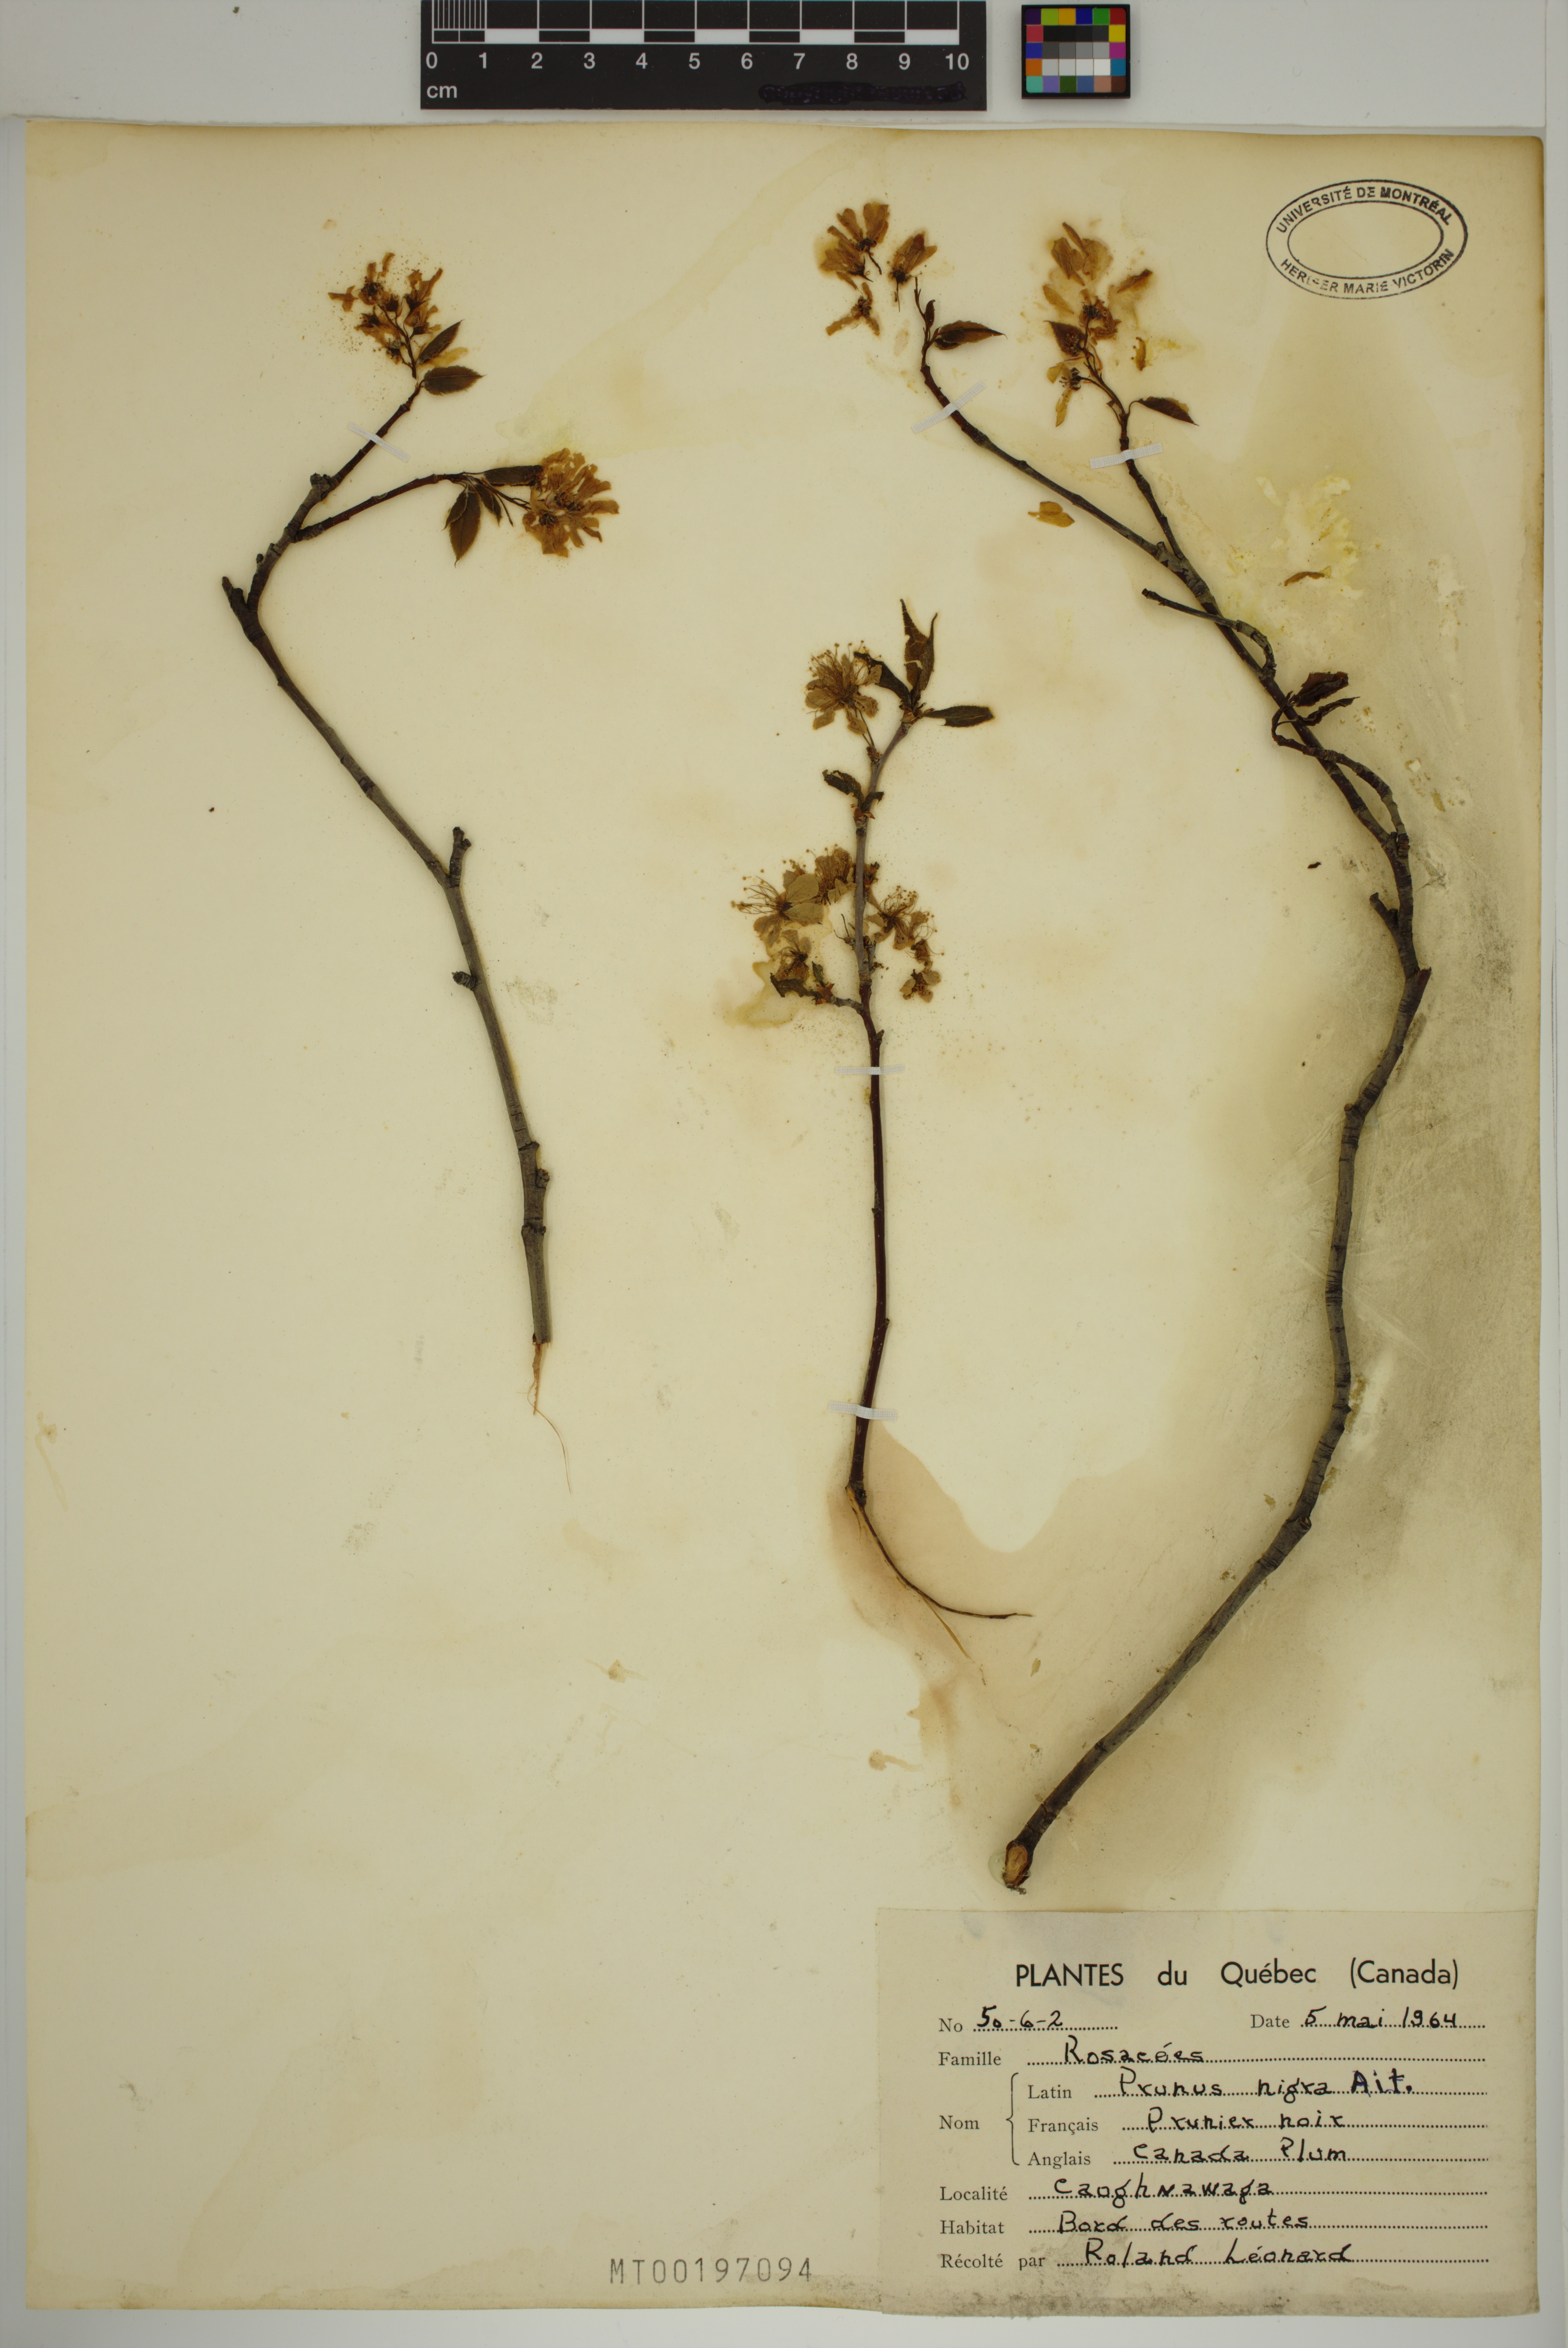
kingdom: Plantae
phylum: Tracheophyta
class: Magnoliopsida
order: Rosales
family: Rosaceae
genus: Prunus
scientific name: Prunus nigra
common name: Black plum
